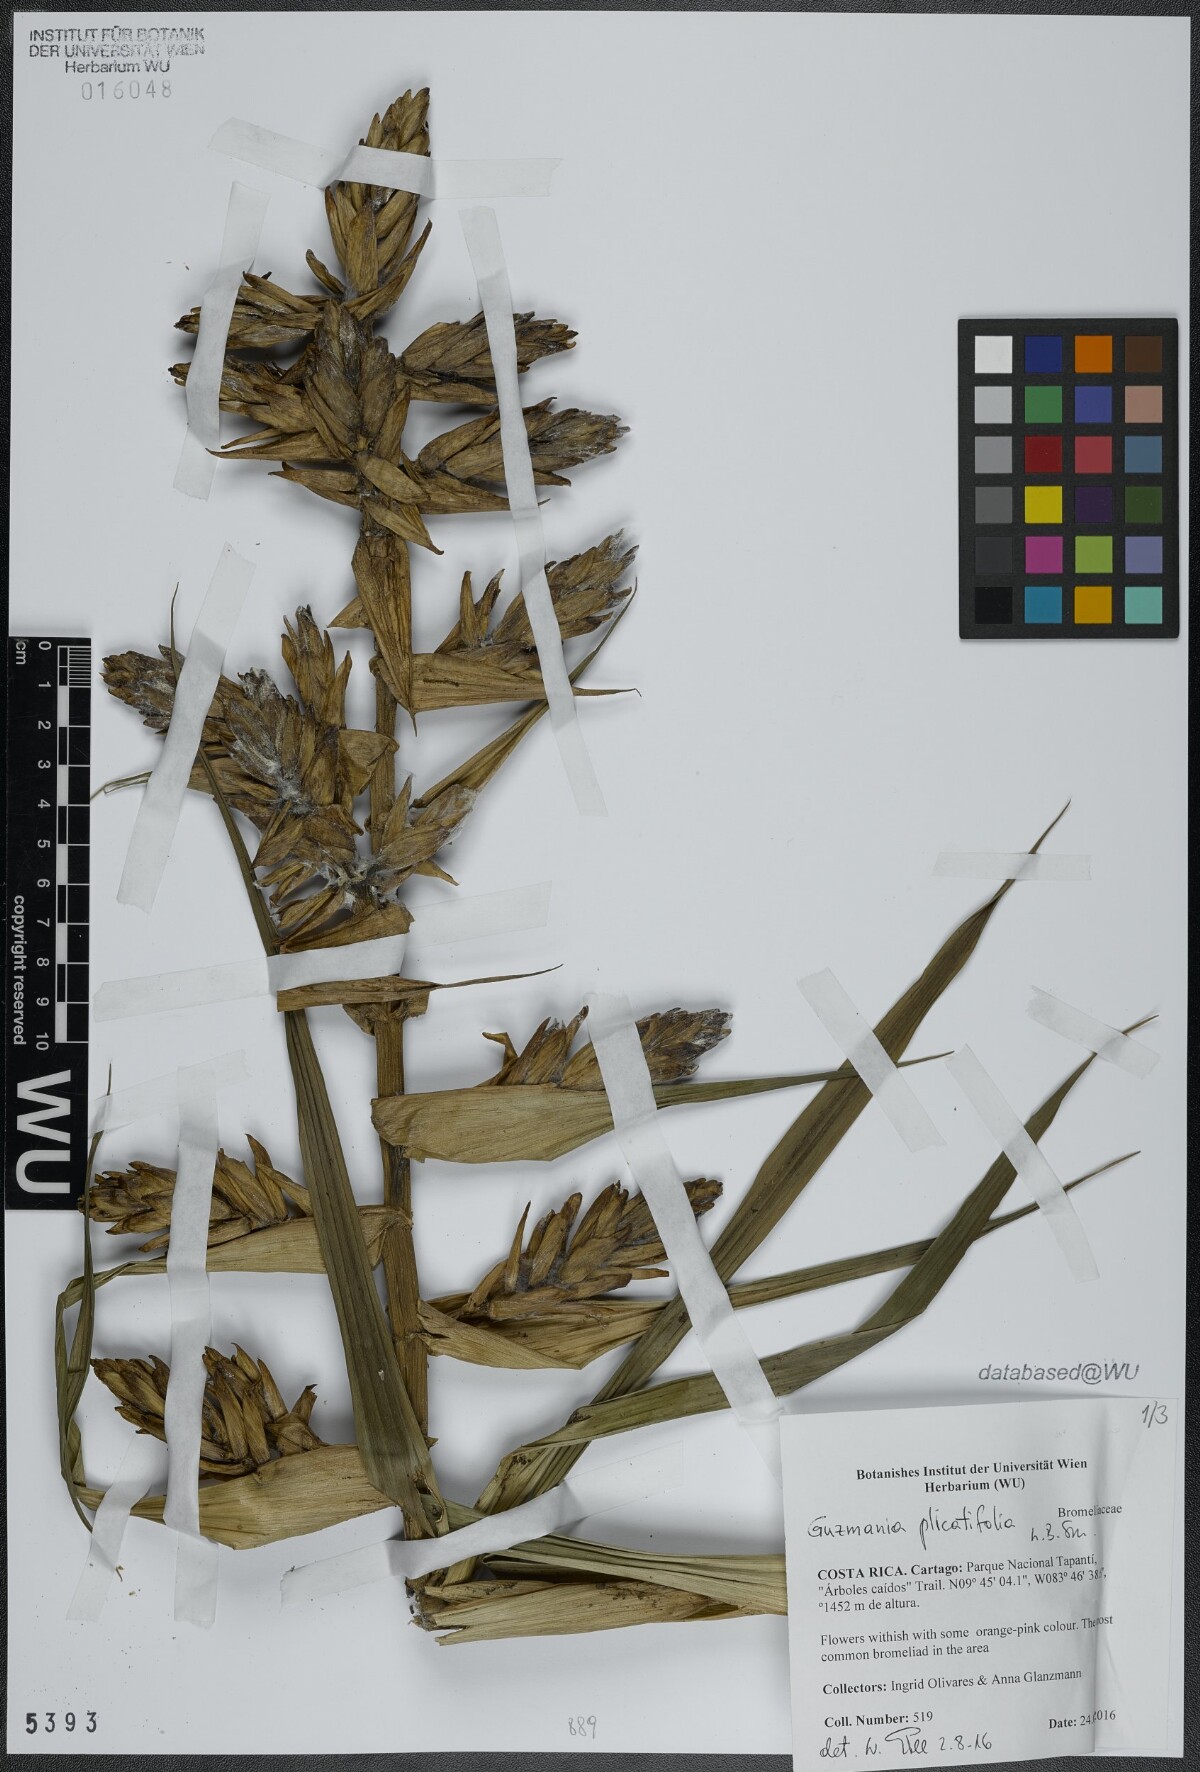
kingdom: Plantae
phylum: Tracheophyta
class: Liliopsida
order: Poales
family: Bromeliaceae
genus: Guzmania
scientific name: Guzmania plicatifolia
